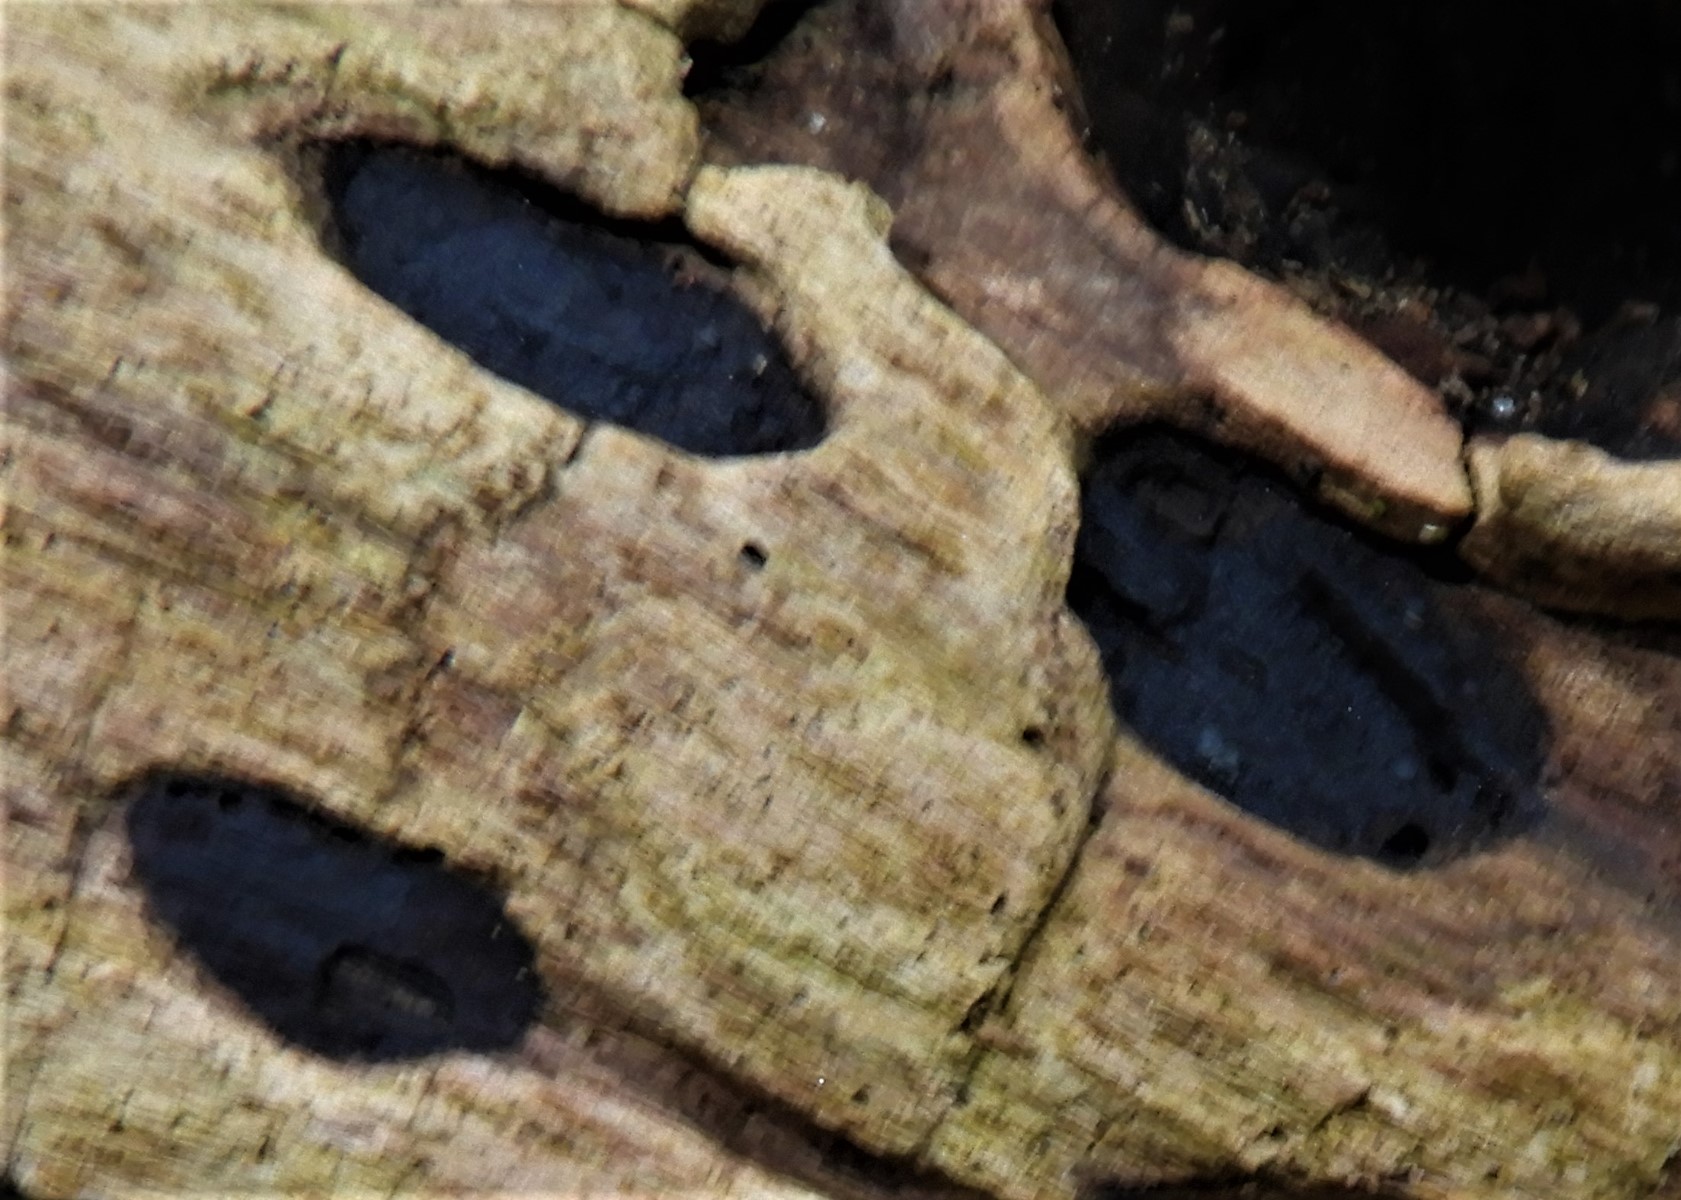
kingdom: Fungi
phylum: Ascomycota
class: Sordariomycetes
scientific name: Sordariomycetes
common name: kernesvampklassen
